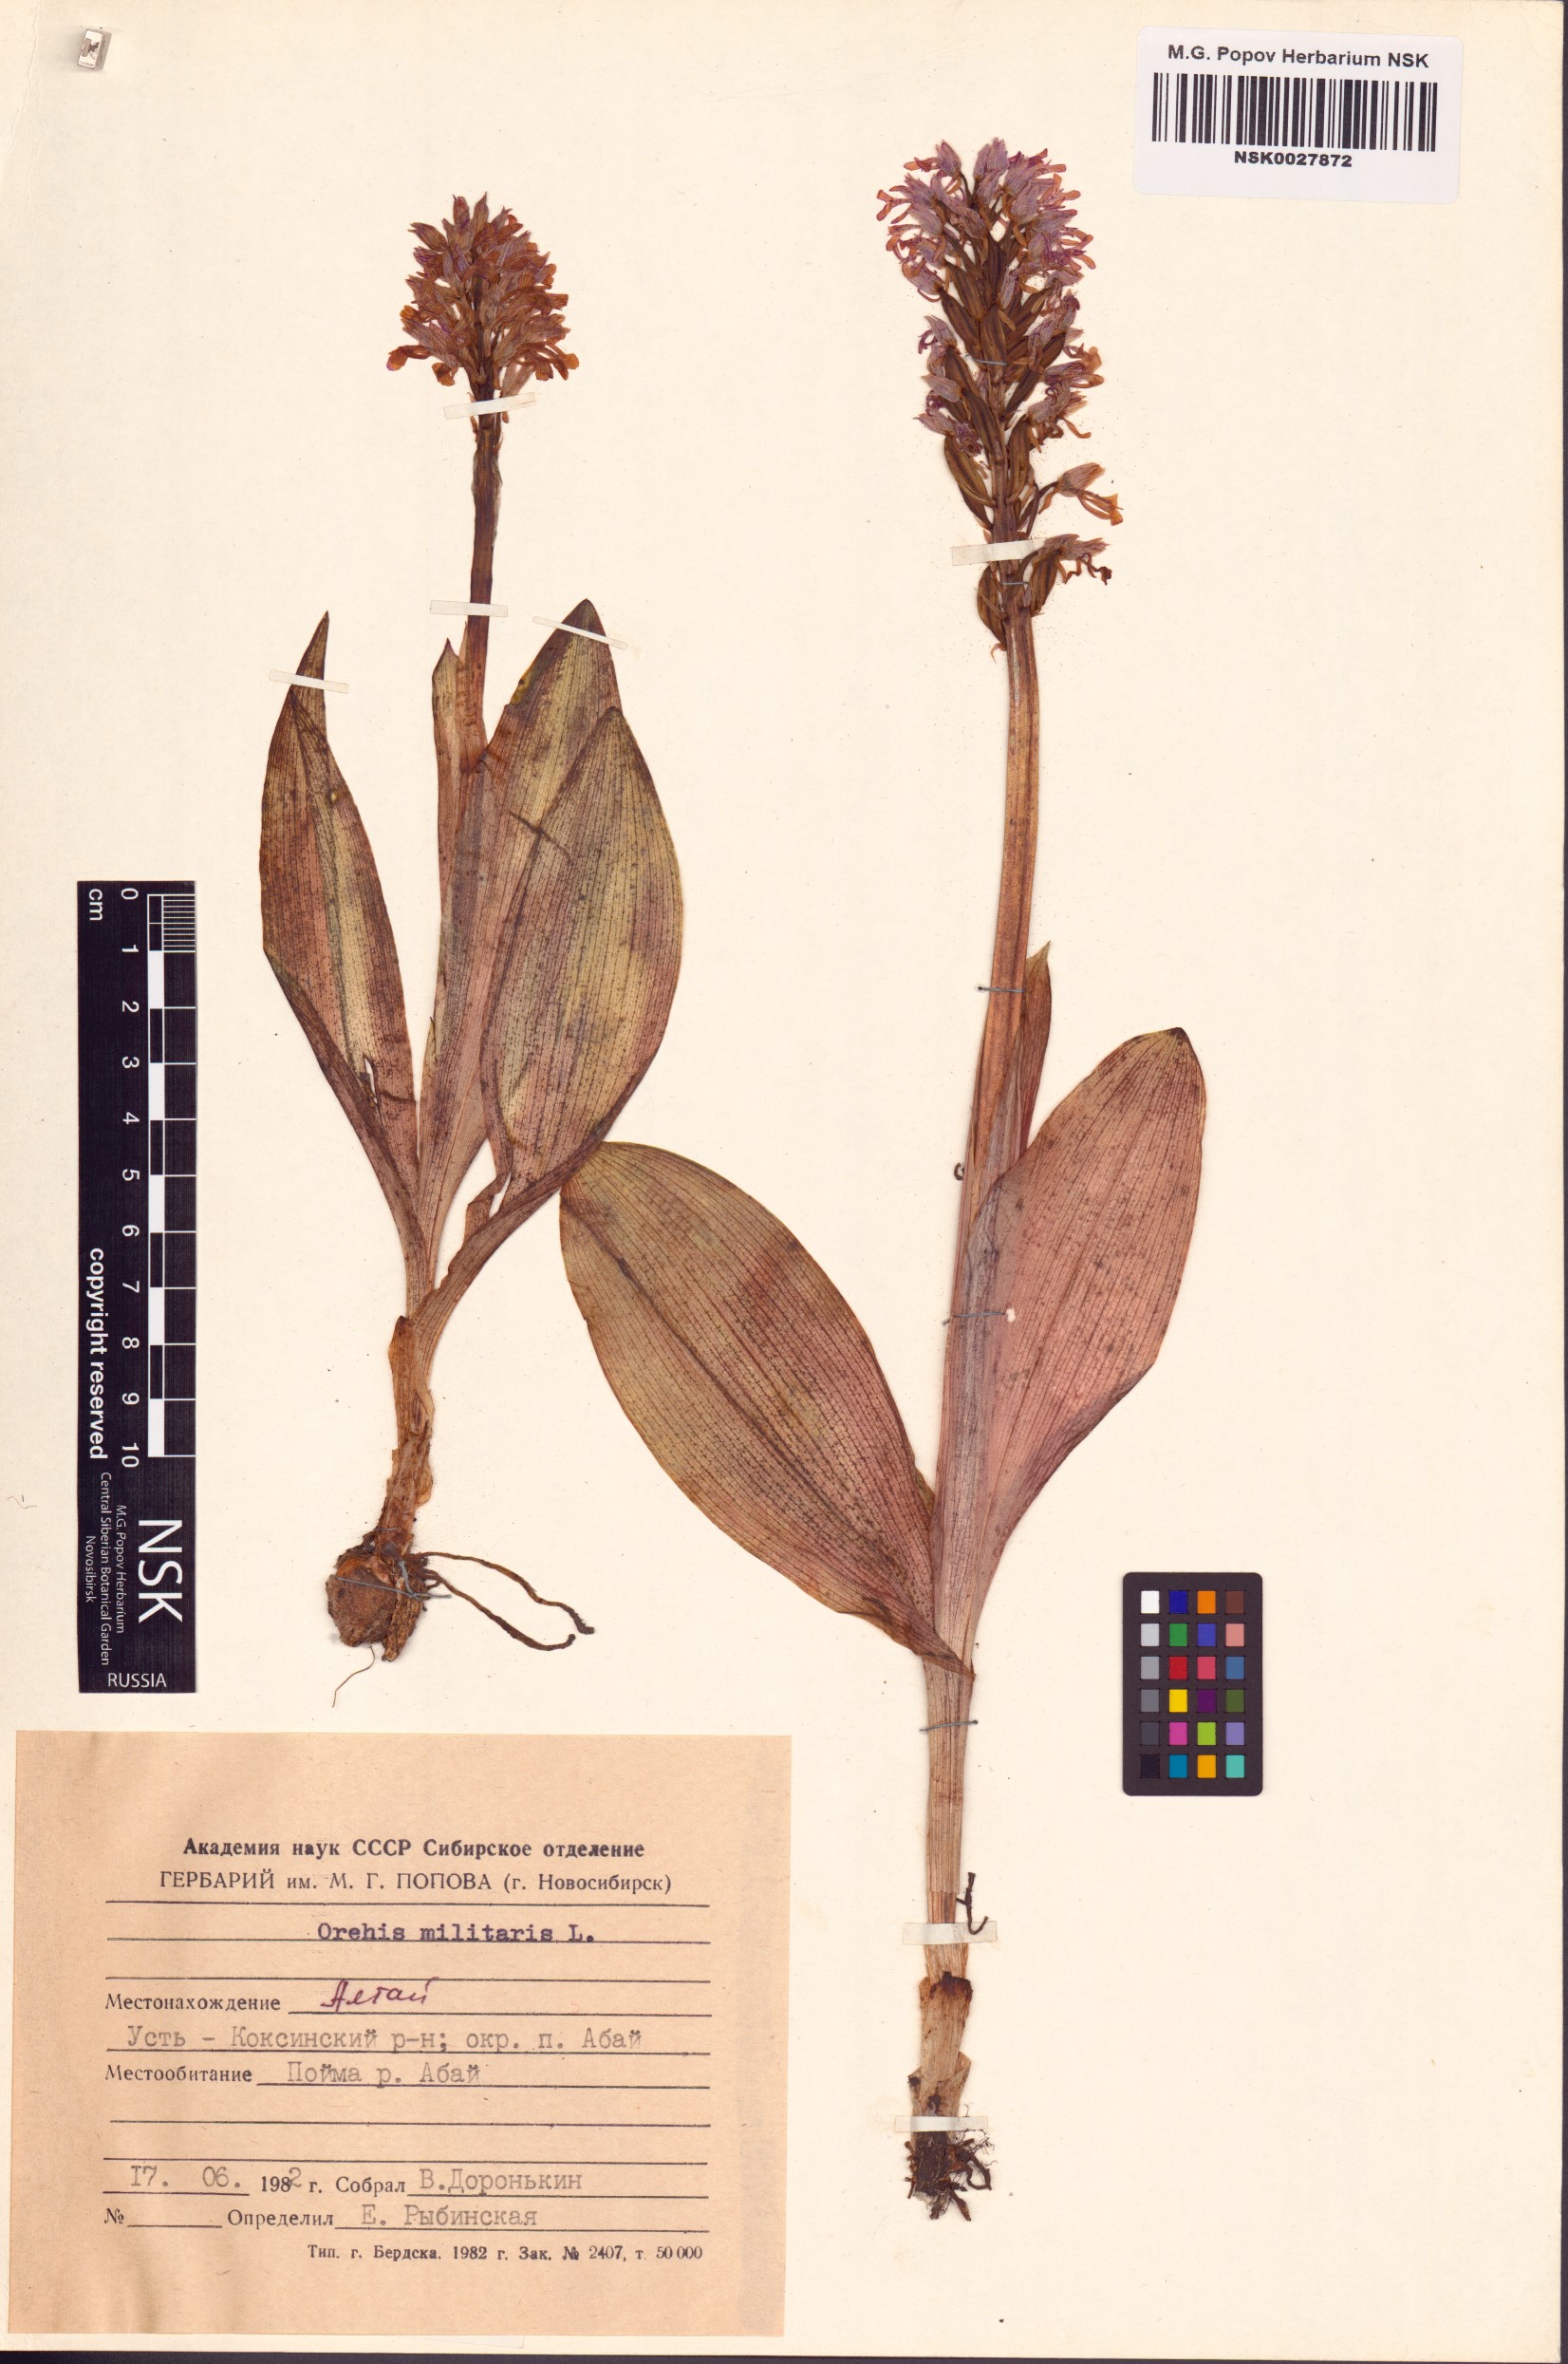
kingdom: Plantae
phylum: Tracheophyta
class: Liliopsida
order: Asparagales
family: Orchidaceae
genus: Orchis
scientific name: Orchis militaris
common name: Military orchid
